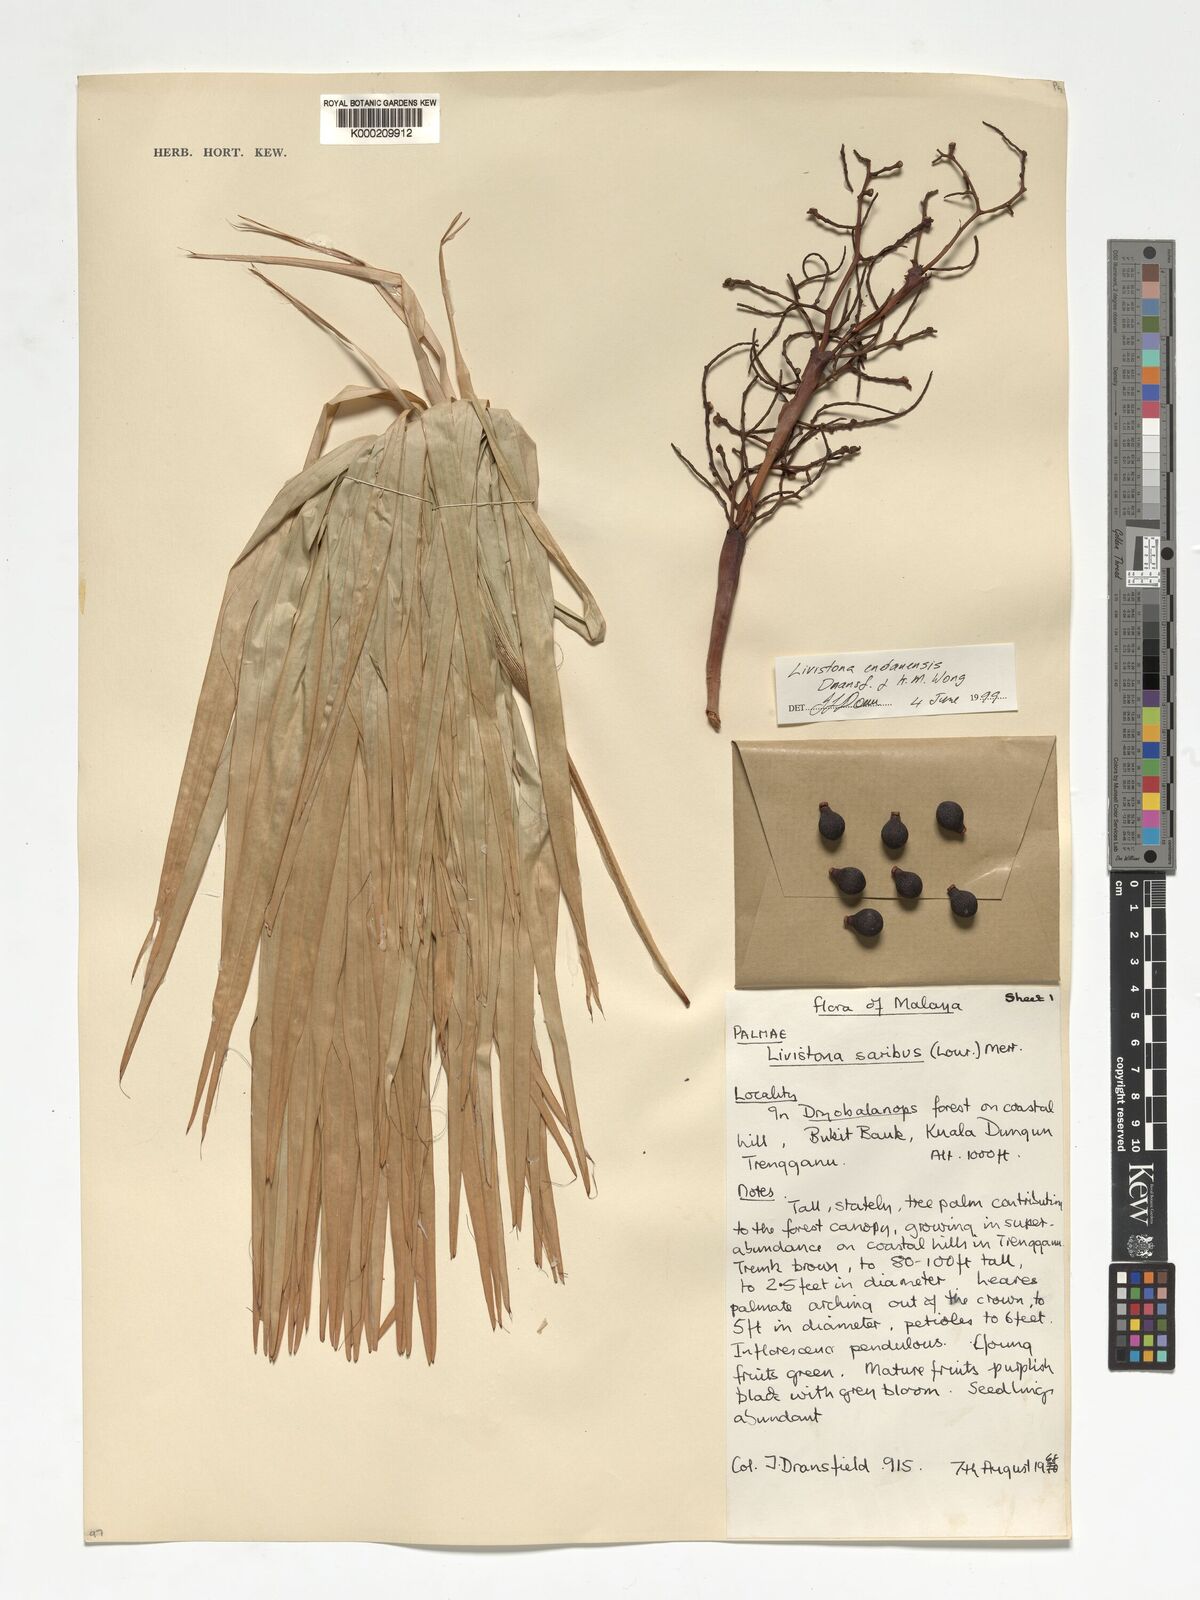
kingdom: Plantae
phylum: Tracheophyta
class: Liliopsida
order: Arecales
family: Arecaceae
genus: Livistona
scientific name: Livistona endauensis
